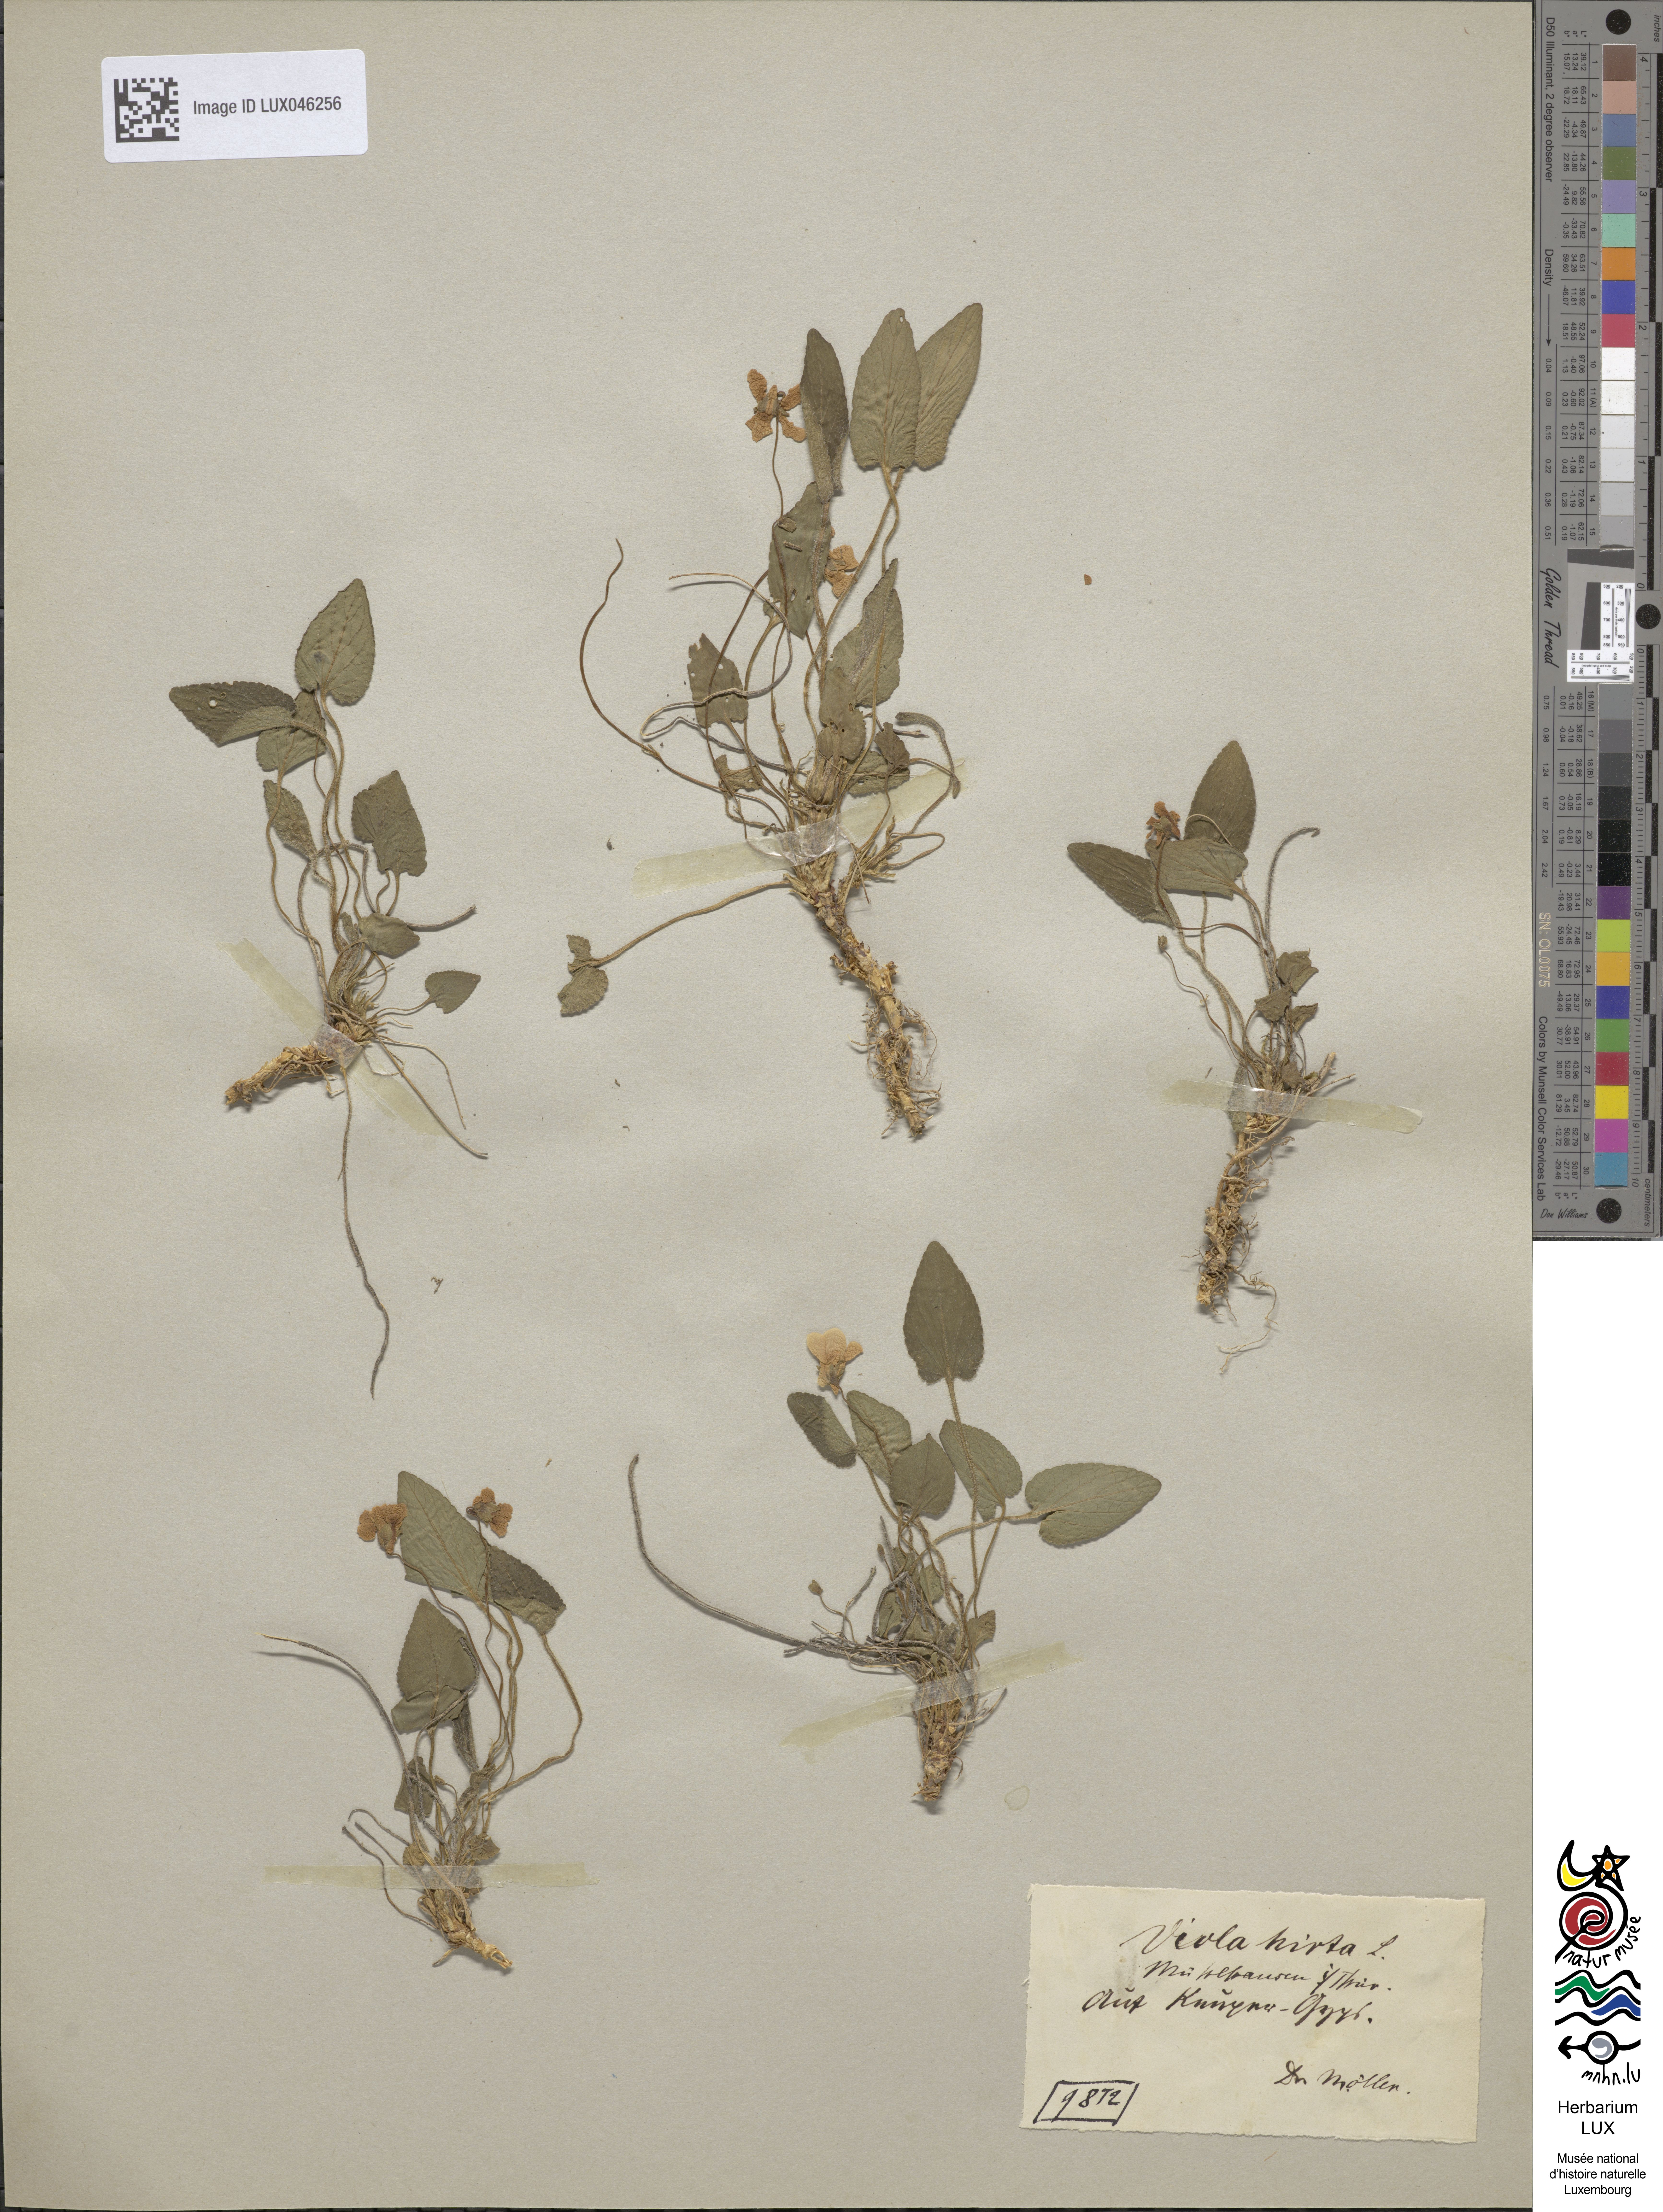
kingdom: Plantae
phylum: Tracheophyta
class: Magnoliopsida
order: Malpighiales
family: Violaceae
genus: Viola
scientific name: Viola hirta
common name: Hairy violet
